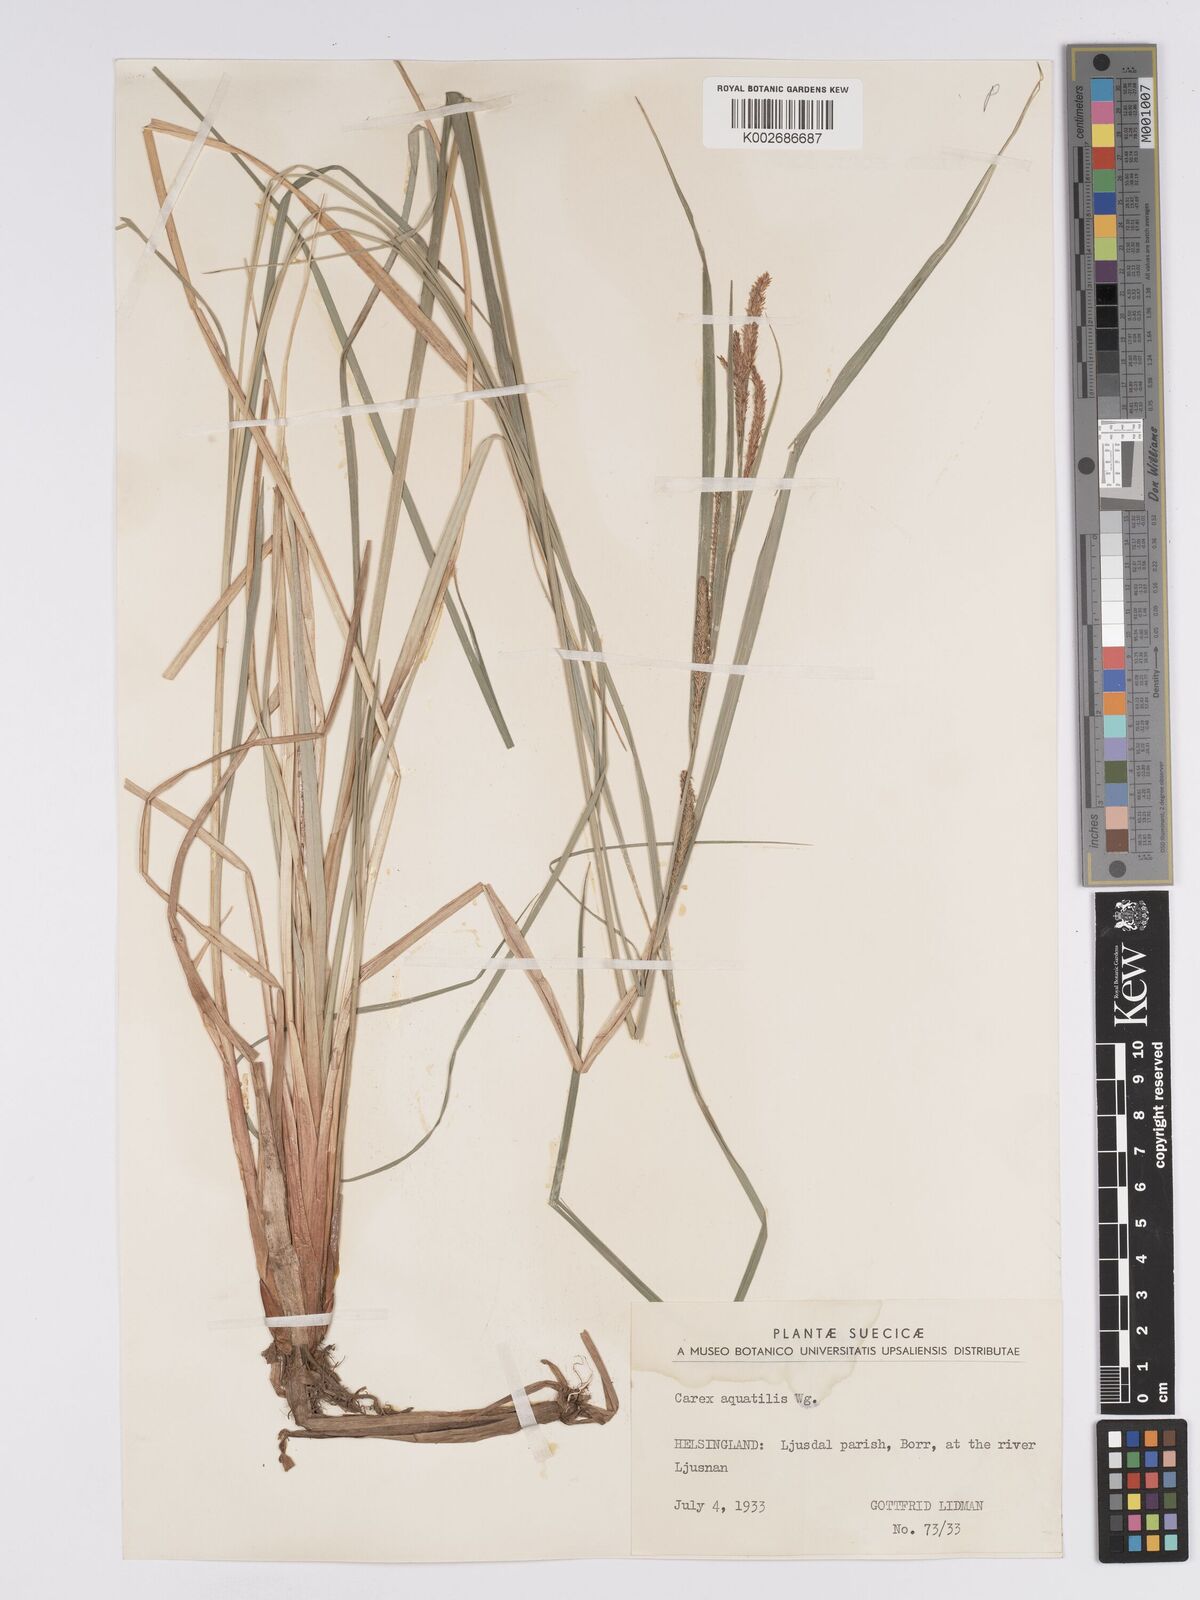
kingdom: Plantae
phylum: Tracheophyta
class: Liliopsida
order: Poales
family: Cyperaceae
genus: Carex
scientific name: Carex aquatilis
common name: Water sedge
